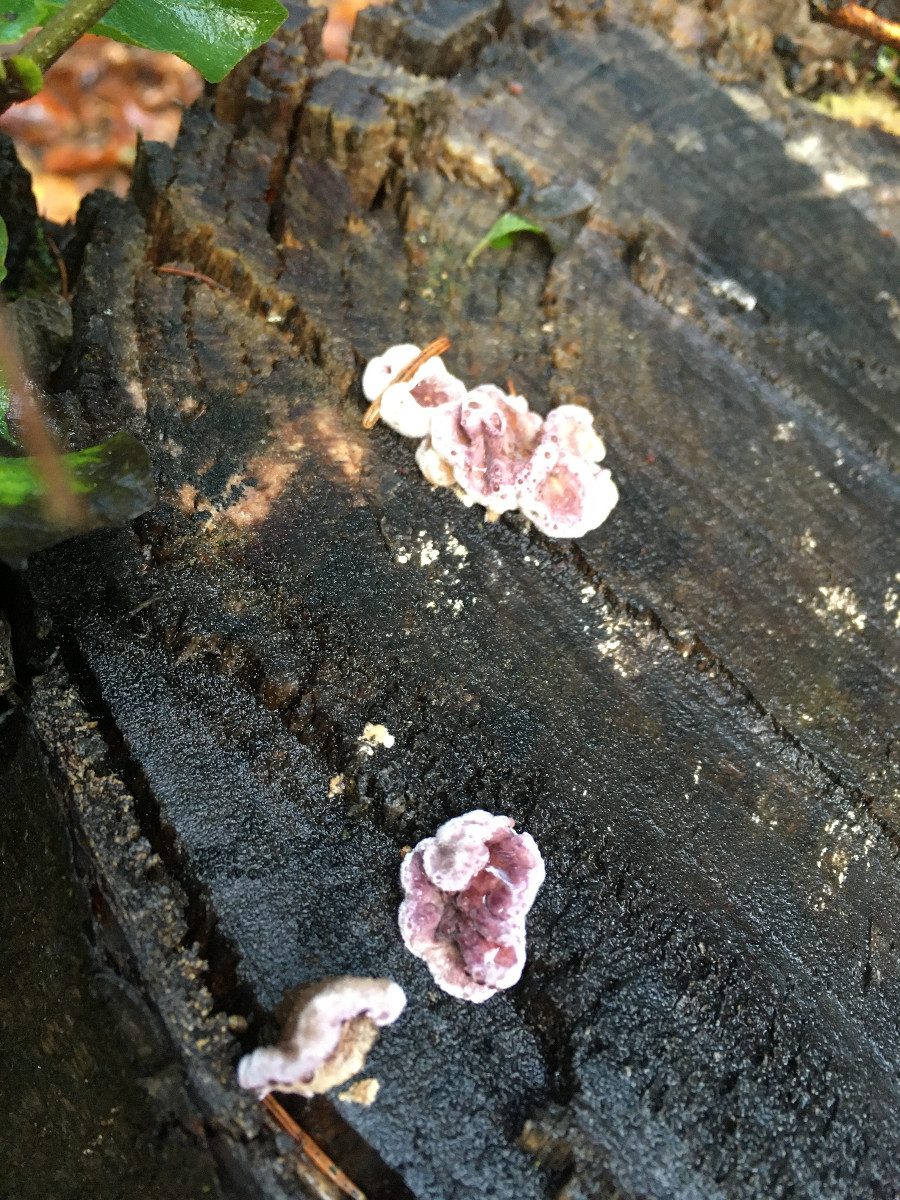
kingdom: Fungi
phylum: Basidiomycota
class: Agaricomycetes
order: Agaricales
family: Cyphellaceae
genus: Chondrostereum
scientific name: Chondrostereum purpureum
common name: purpurlædersvamp
